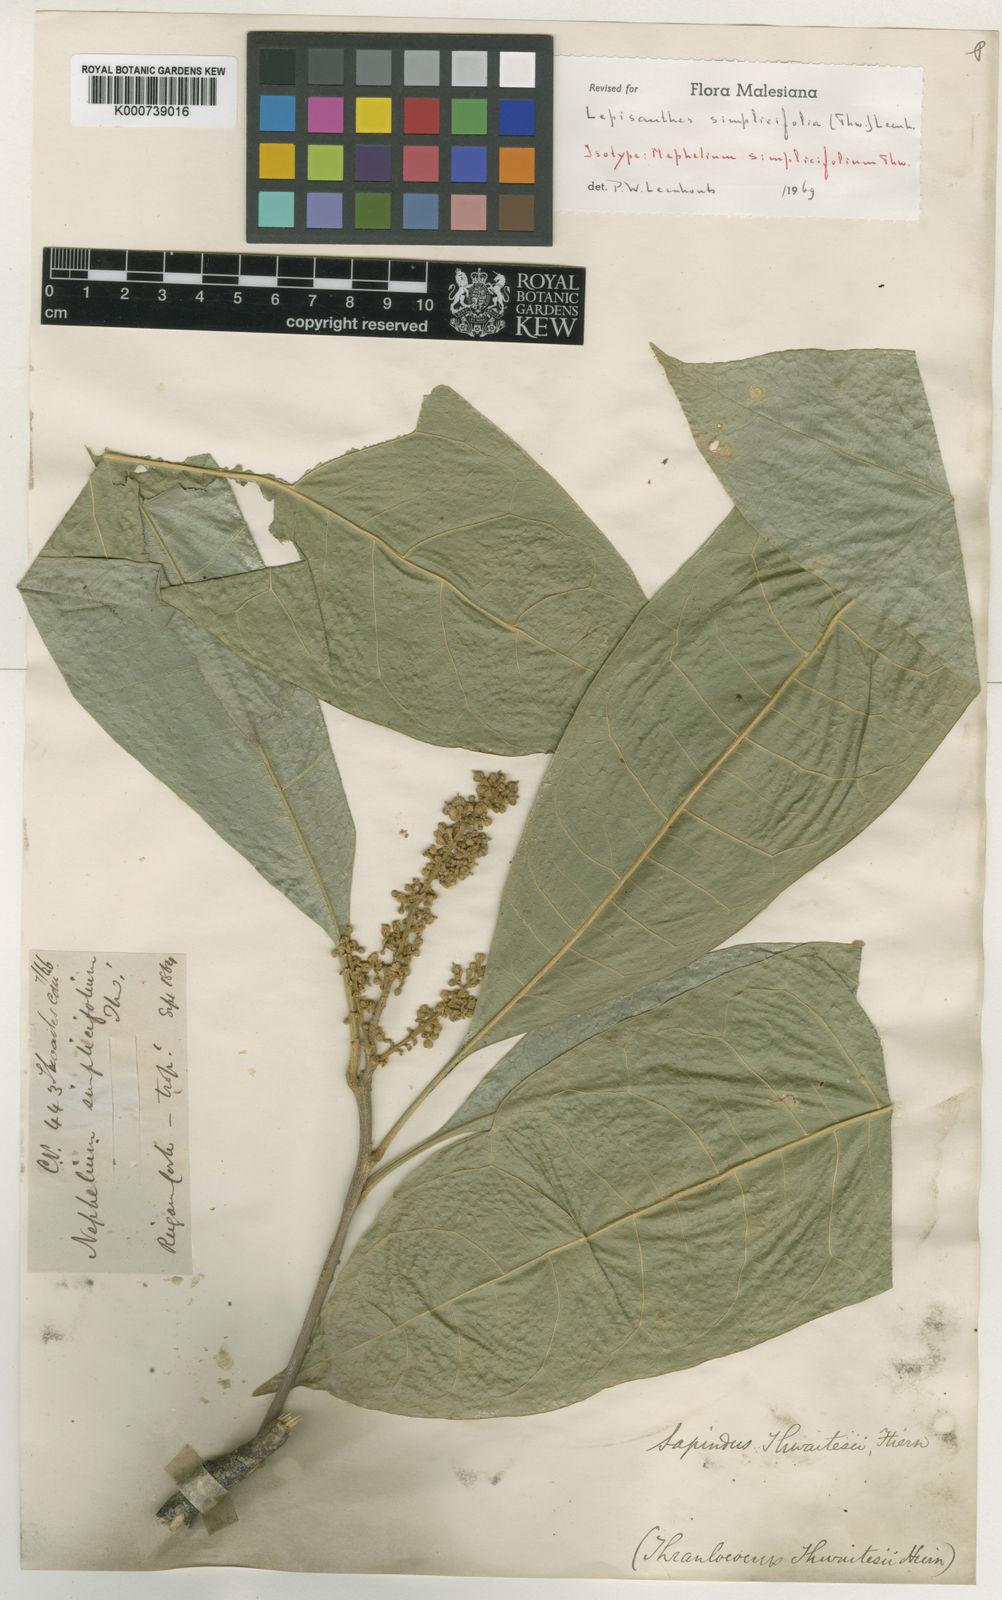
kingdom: Plantae
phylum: Tracheophyta
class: Magnoliopsida
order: Sapindales
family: Sapindaceae
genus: Lepisanthes
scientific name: Lepisanthes simplicifolia
